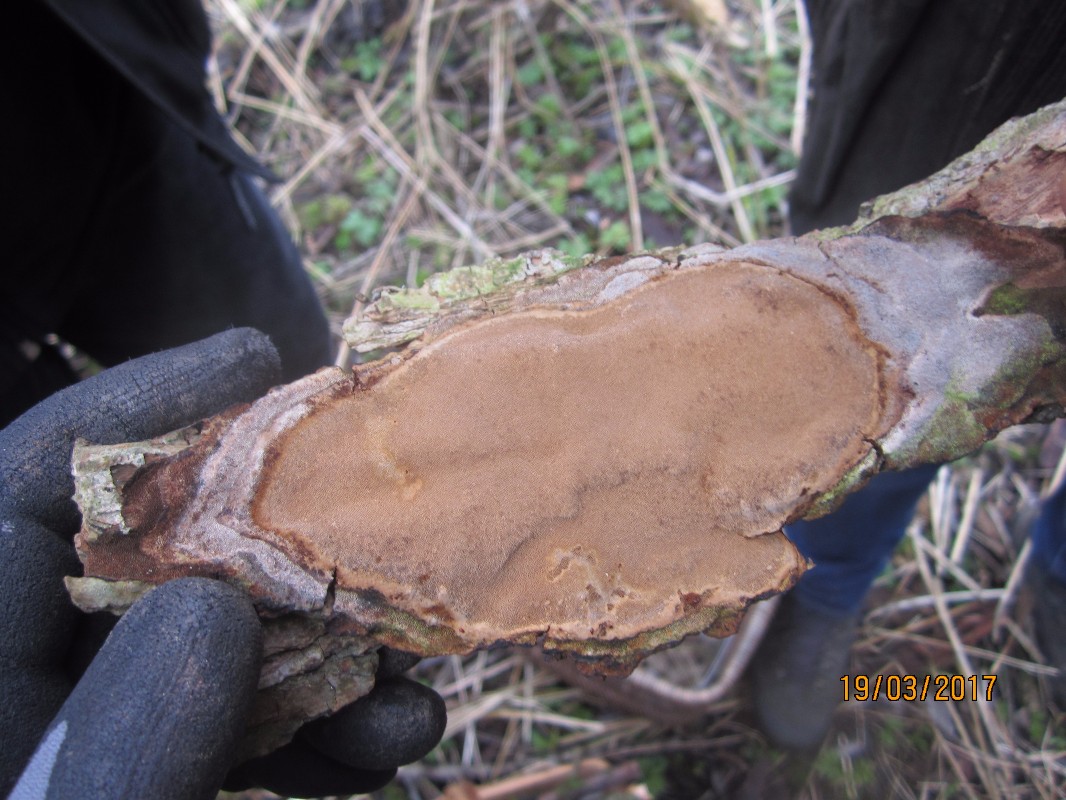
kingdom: Fungi
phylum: Basidiomycota
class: Agaricomycetes
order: Hymenochaetales
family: Hymenochaetaceae
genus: Phellinopsis
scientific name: Phellinopsis conchata
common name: pile-ildporesvamp
